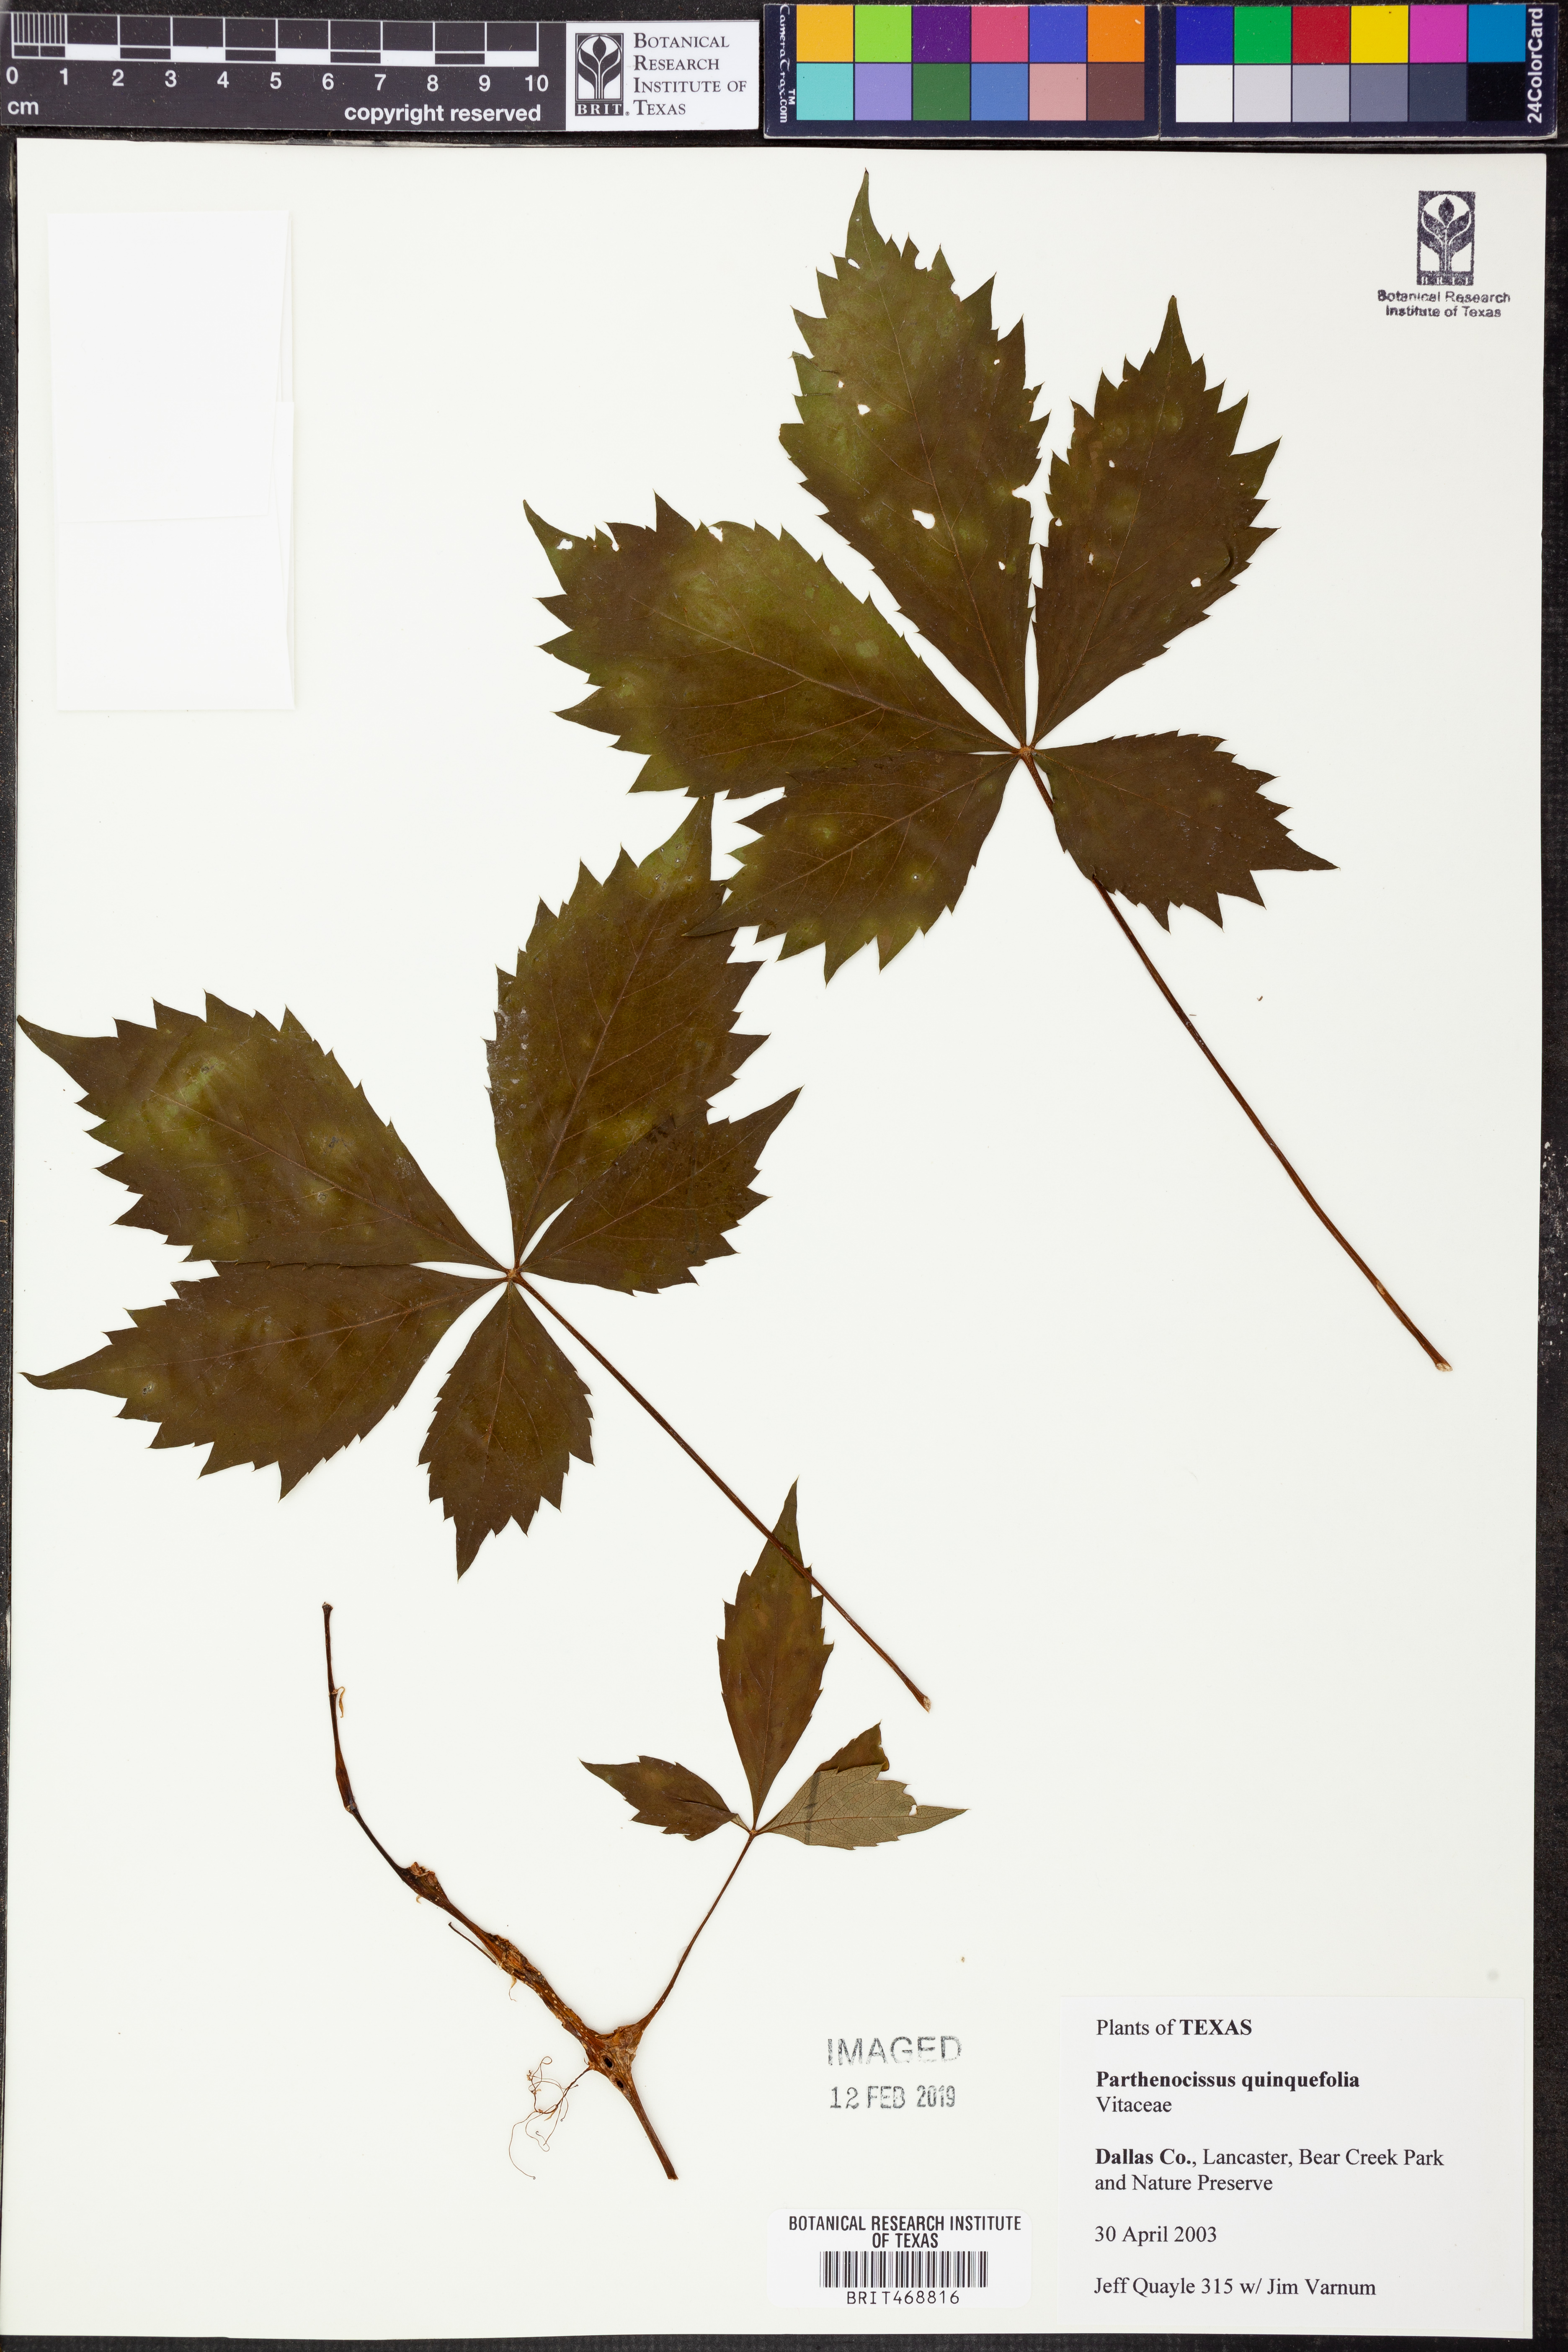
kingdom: Plantae
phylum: Tracheophyta
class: Magnoliopsida
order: Vitales
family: Vitaceae
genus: Parthenocissus
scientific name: Parthenocissus quinquefolia
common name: Virginia-creeper
